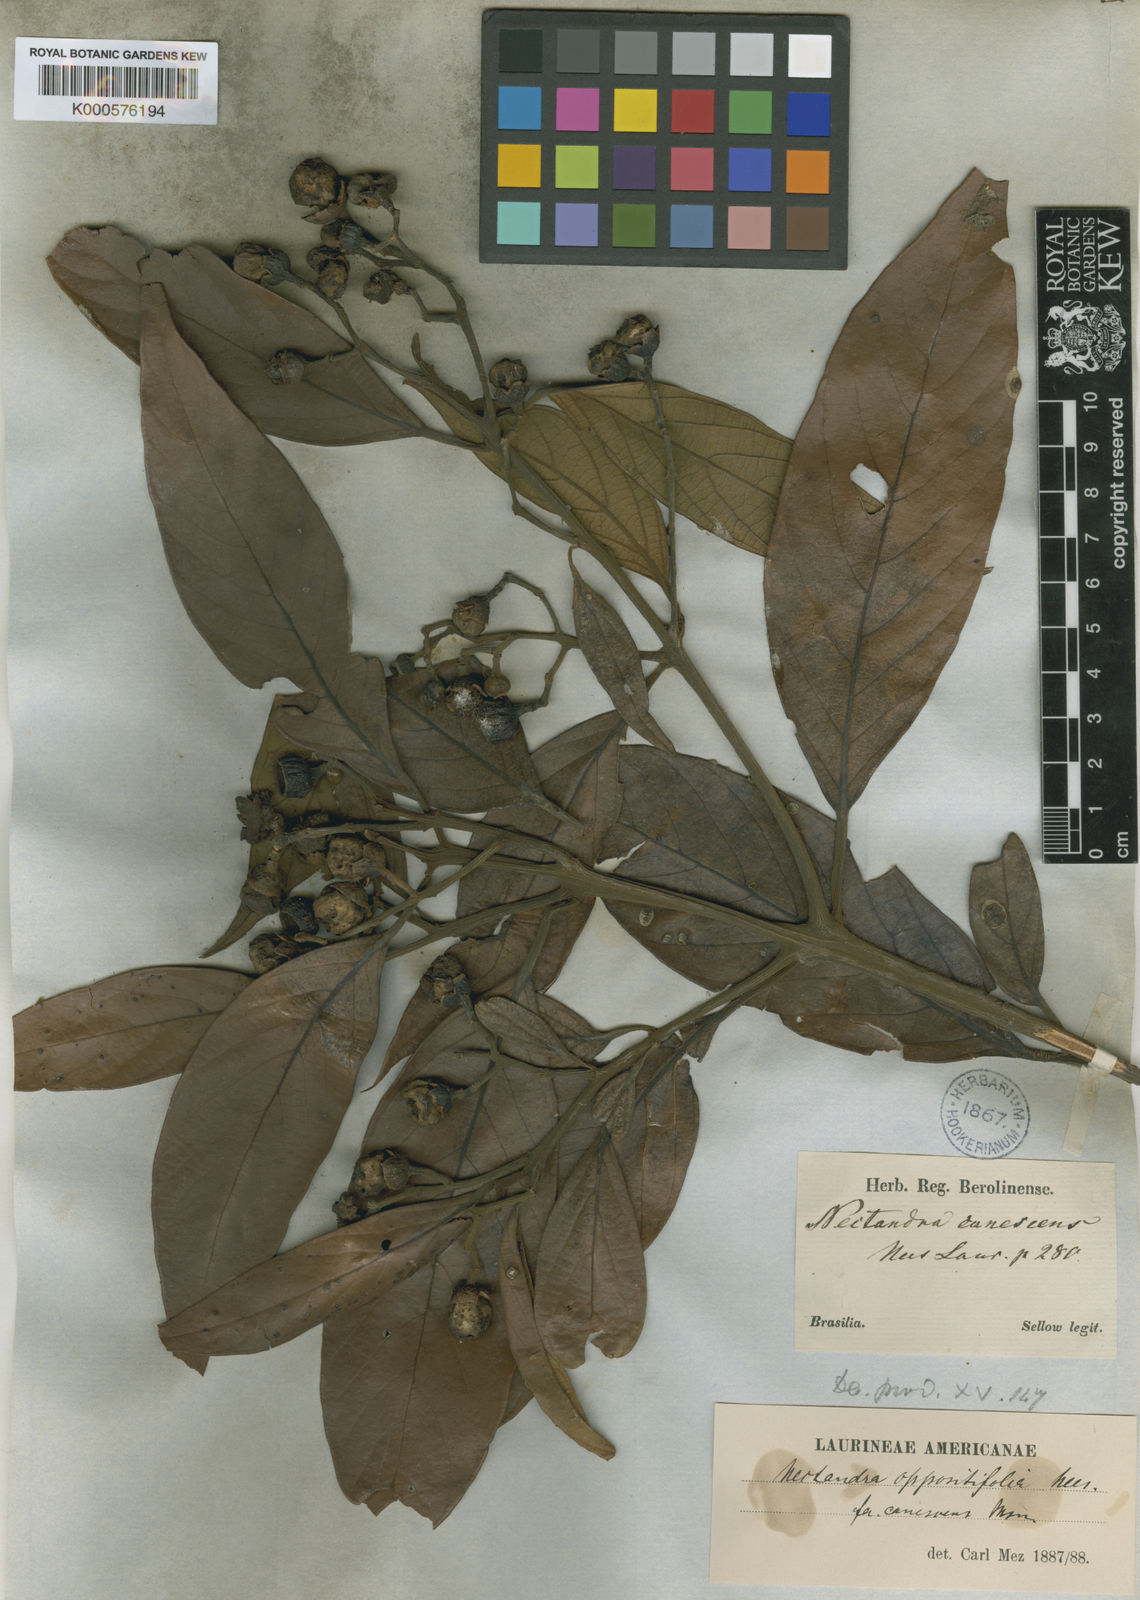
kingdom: Plantae
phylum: Tracheophyta
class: Magnoliopsida
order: Laurales
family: Lauraceae
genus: Nectandra
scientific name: Nectandra oppositifolia
